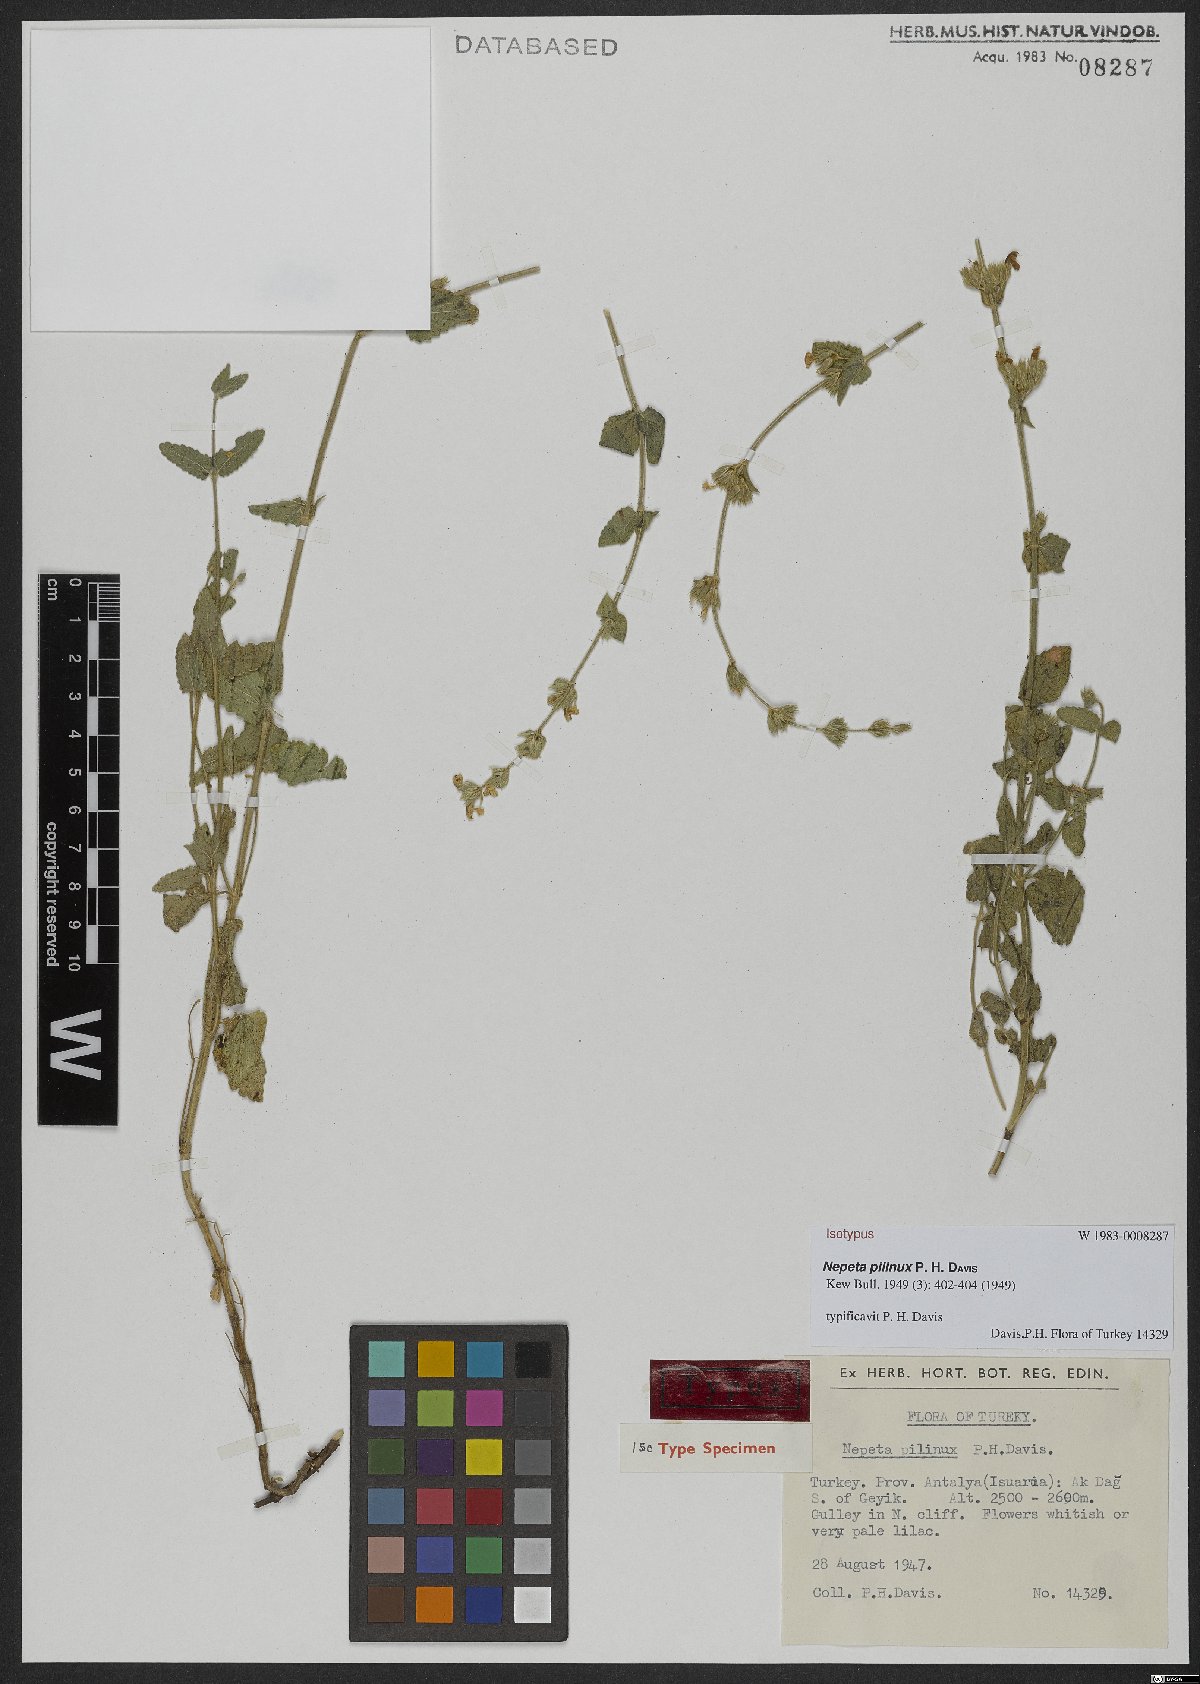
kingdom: Plantae
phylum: Tracheophyta
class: Magnoliopsida
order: Lamiales
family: Lamiaceae
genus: Nepeta
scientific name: Nepeta pilinux
